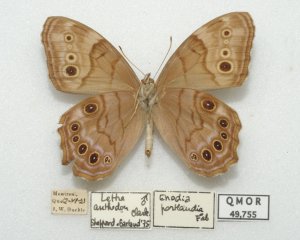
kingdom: Animalia
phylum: Arthropoda
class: Insecta
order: Lepidoptera
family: Nymphalidae
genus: Lethe
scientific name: Lethe anthedon
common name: Northern Pearly-Eye
